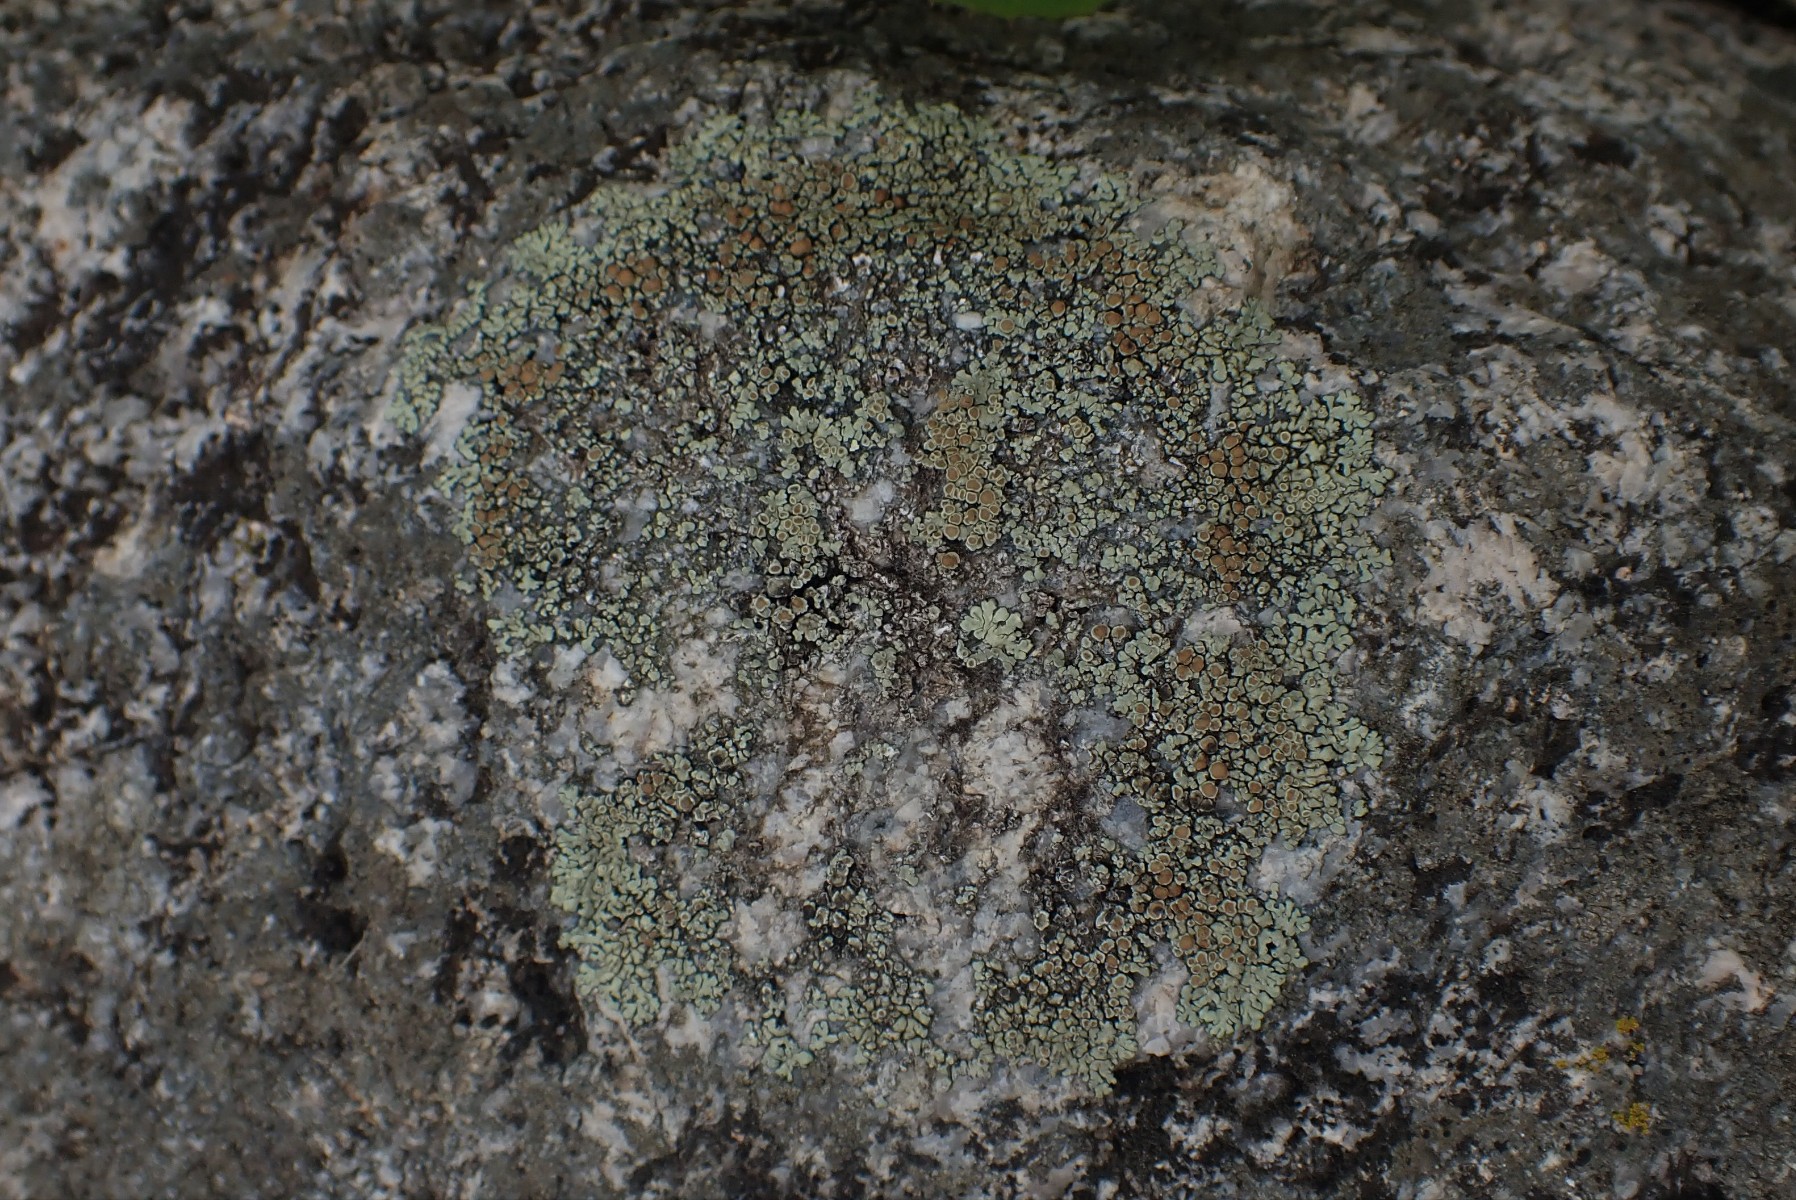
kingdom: Fungi
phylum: Ascomycota
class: Lecanoromycetes
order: Lecanorales
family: Lecanoraceae
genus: Protoparmeliopsis
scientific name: Protoparmeliopsis muralis
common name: randfliget kantskivelav
